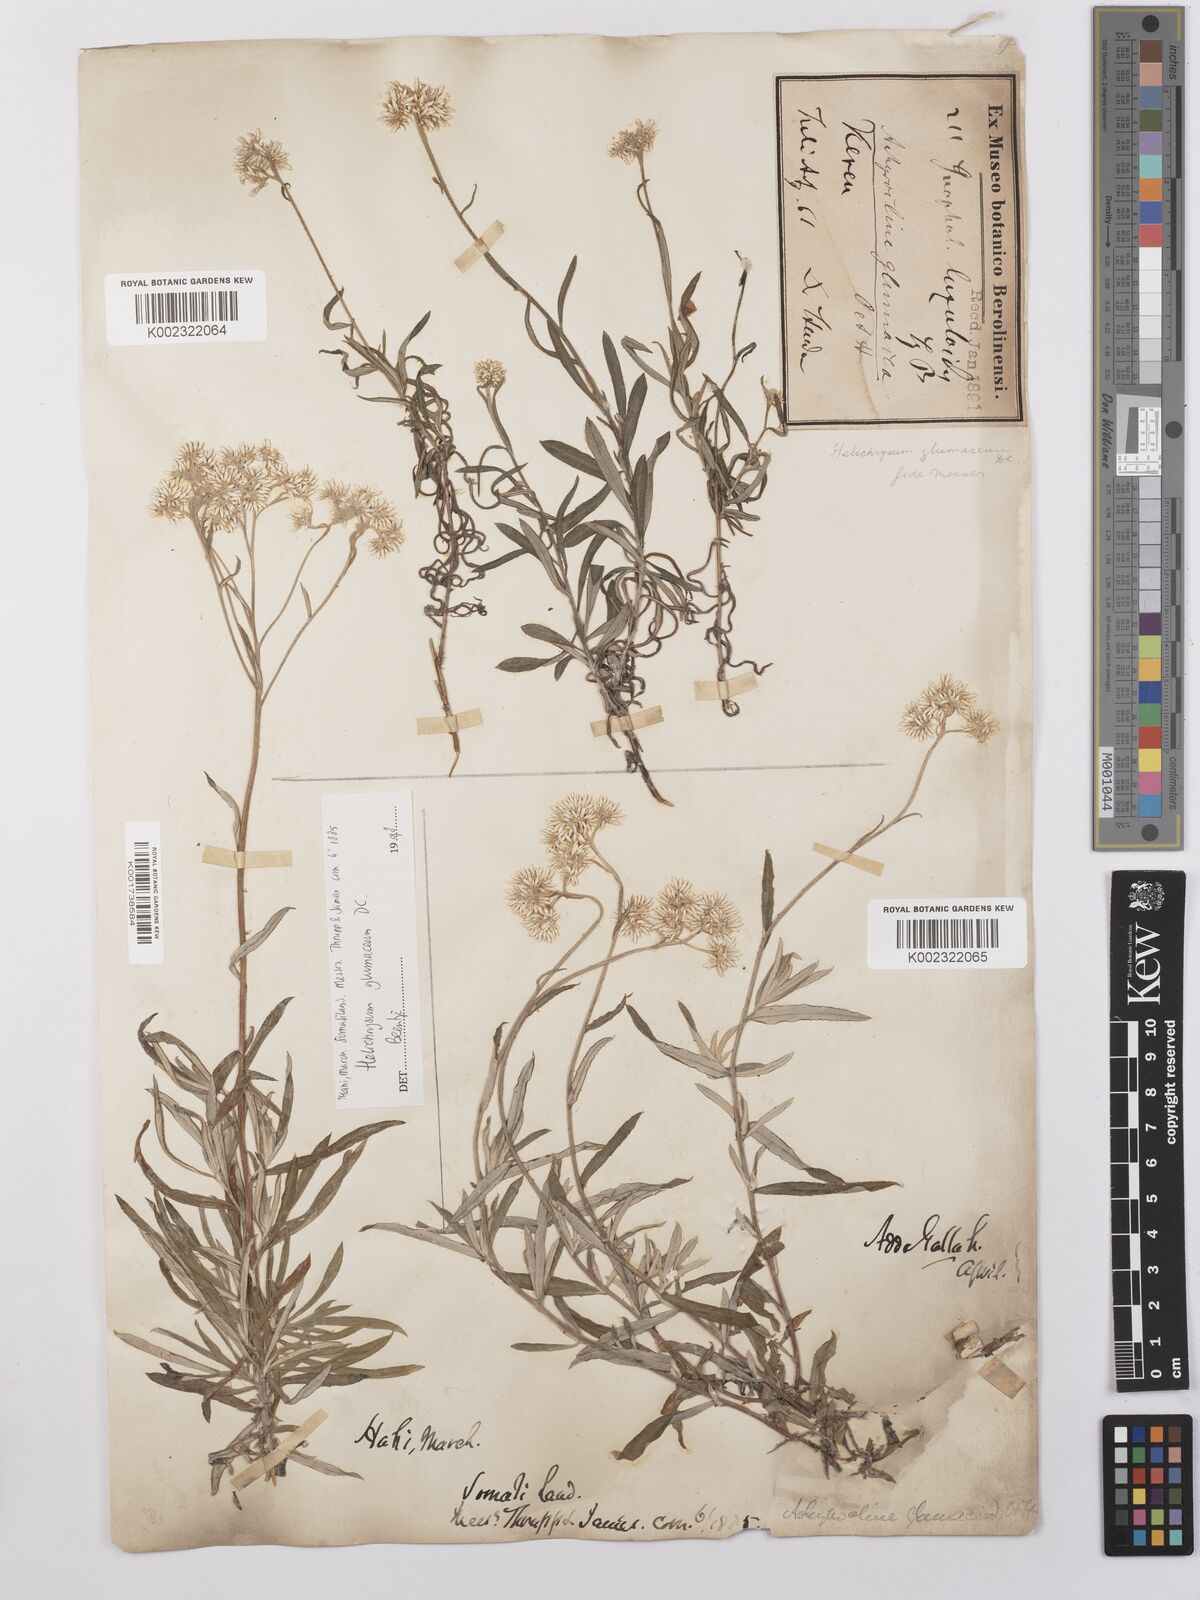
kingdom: Plantae
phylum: Tracheophyta
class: Magnoliopsida
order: Asterales
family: Asteraceae
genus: Helichrysum
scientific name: Helichrysum glumaceum
